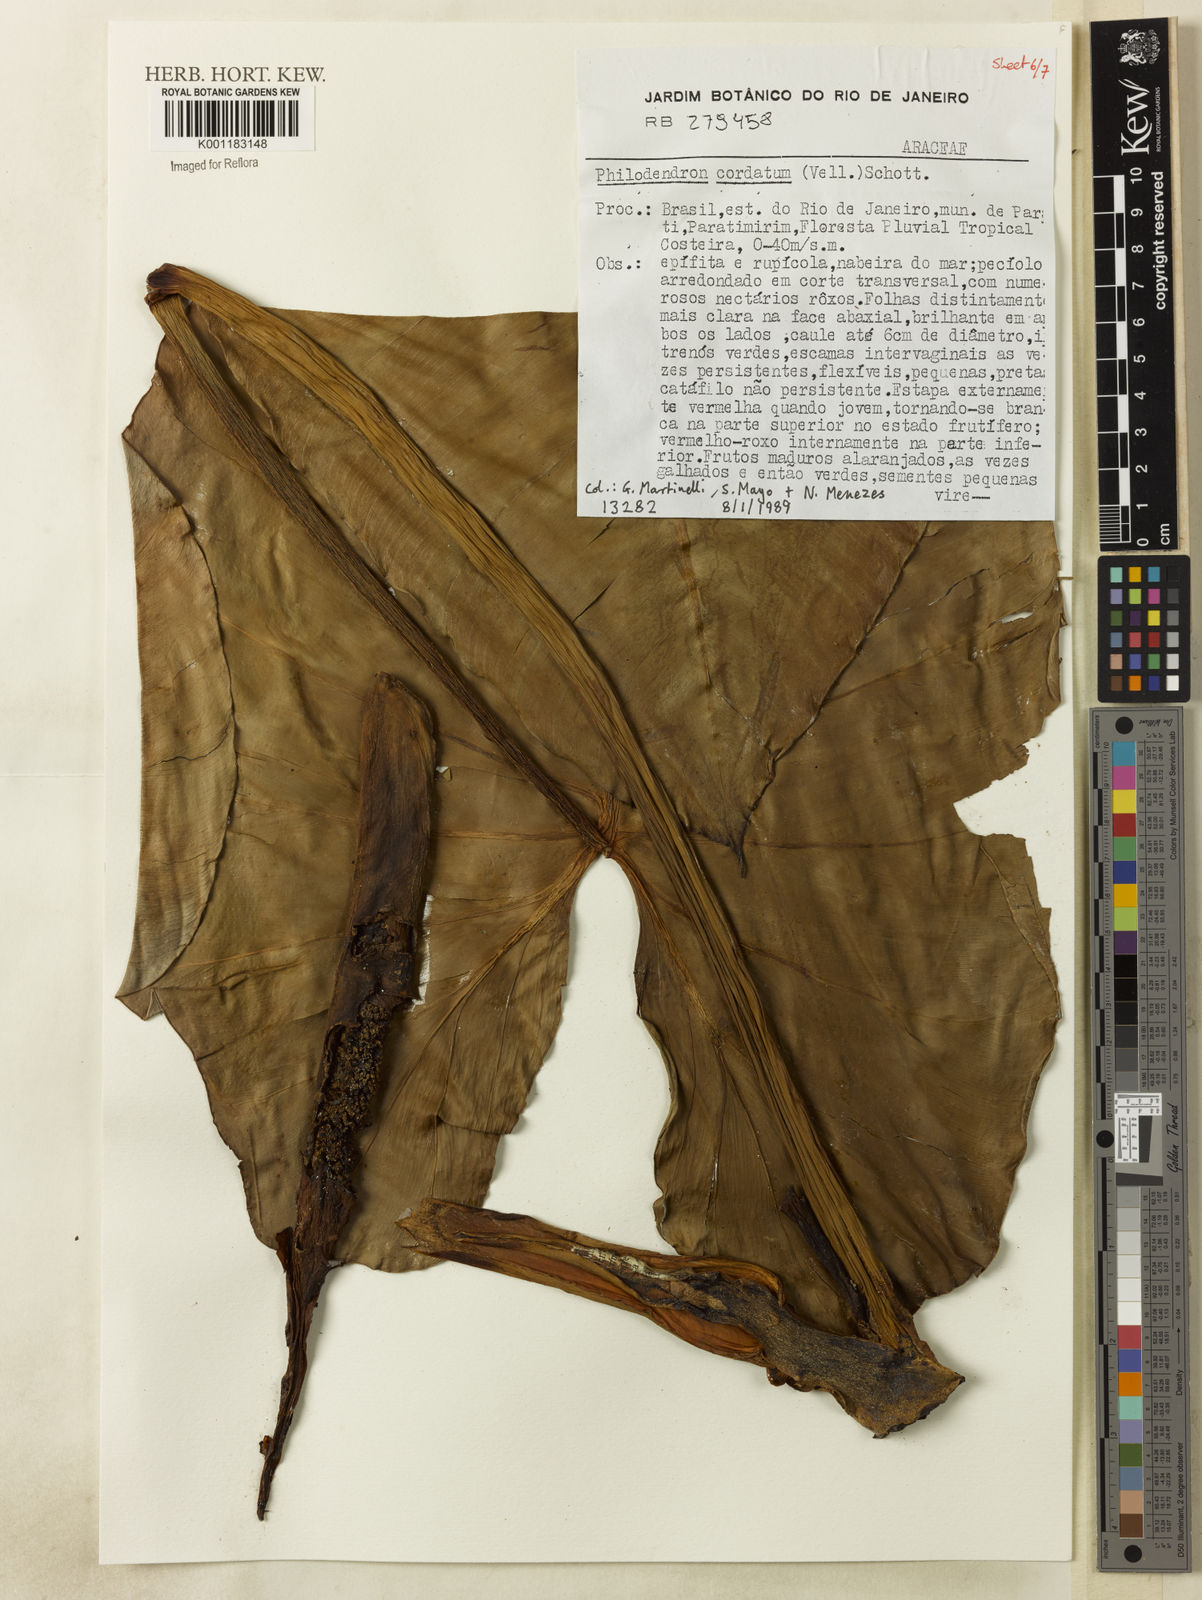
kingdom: Plantae
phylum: Tracheophyta
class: Liliopsida
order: Alismatales
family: Araceae
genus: Philodendron
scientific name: Philodendron cordatum
